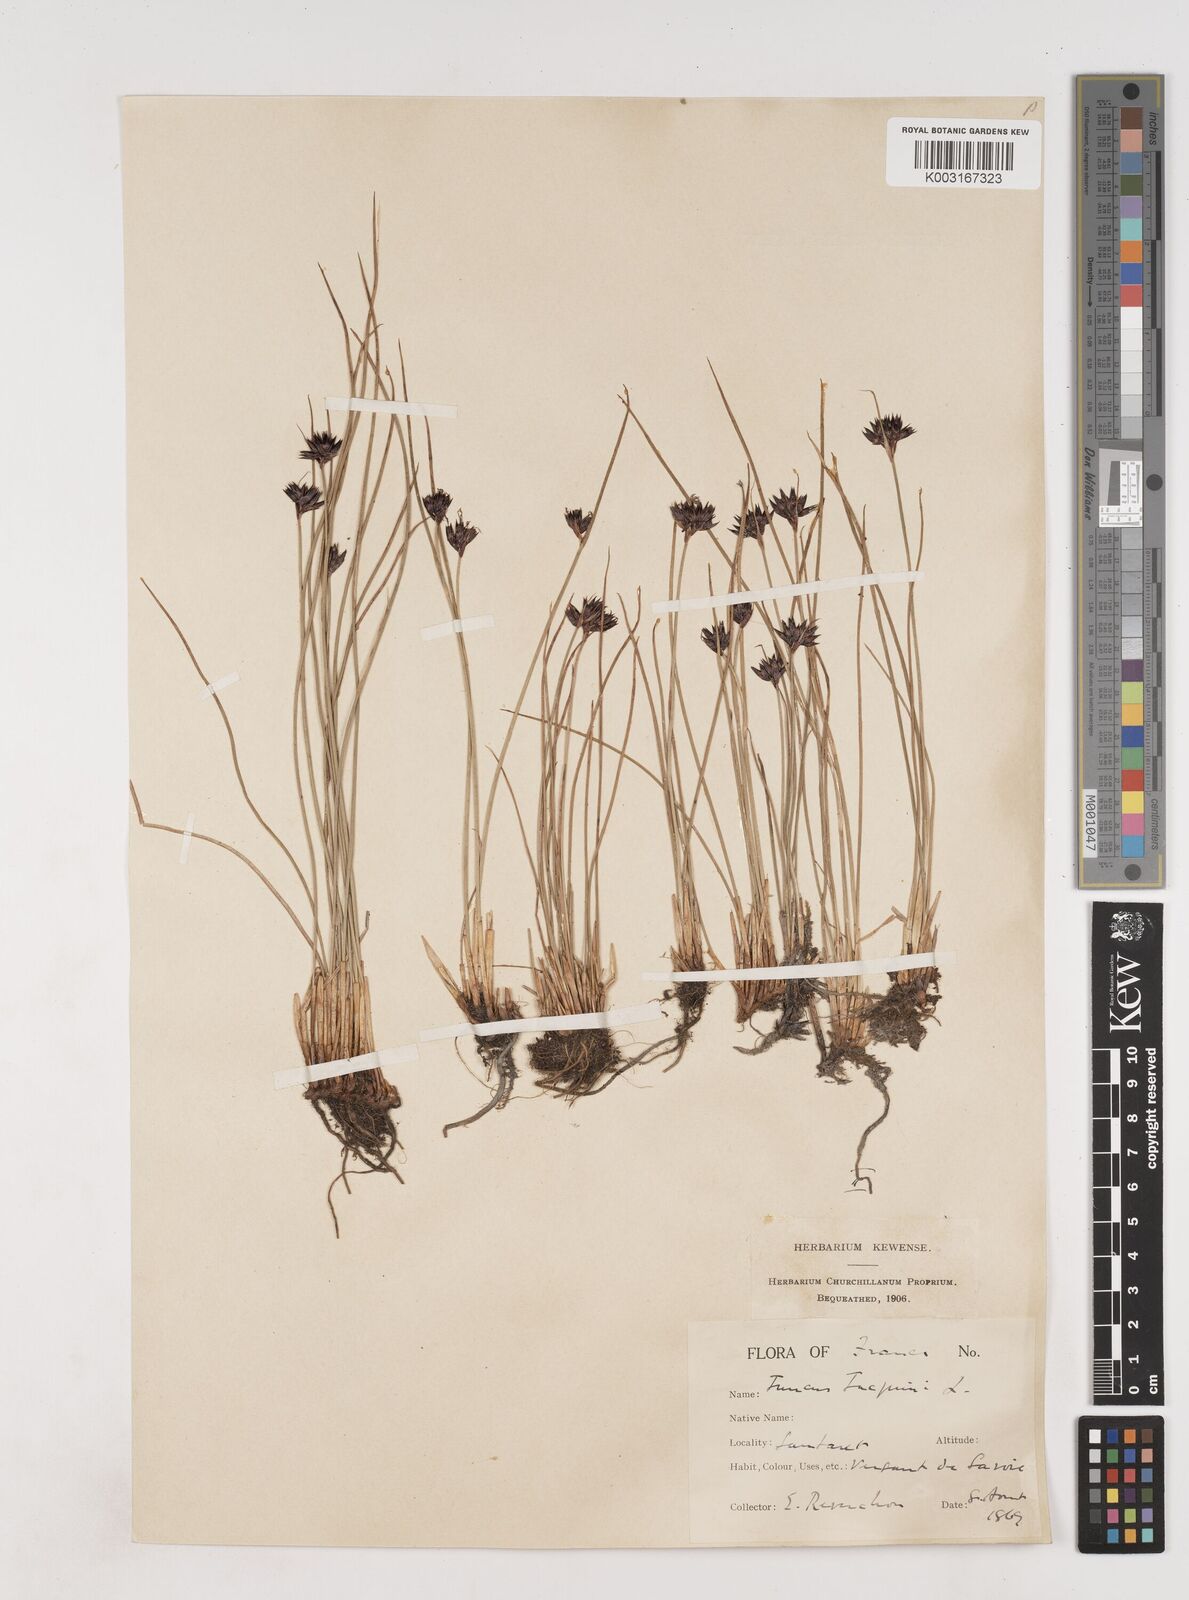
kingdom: Plantae
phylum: Tracheophyta
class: Liliopsida
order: Poales
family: Juncaceae
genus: Juncus
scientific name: Juncus jacquinii
